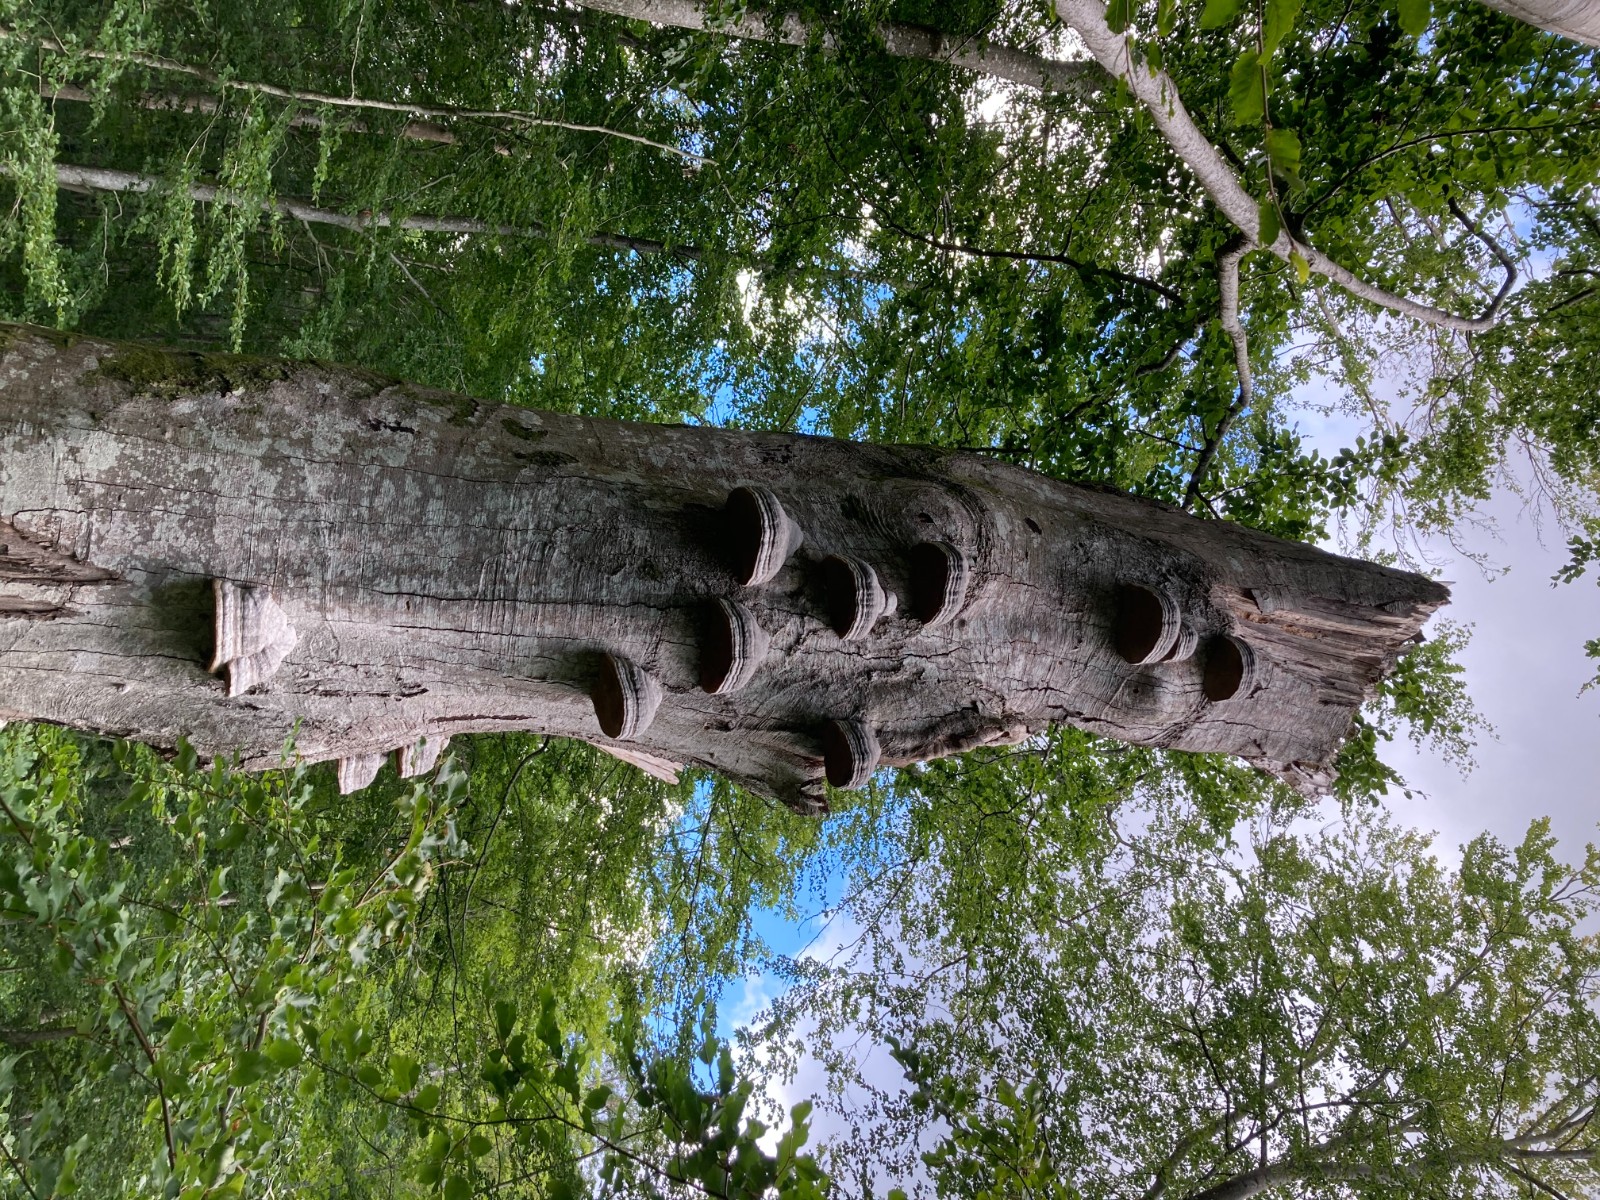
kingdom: Fungi
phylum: Basidiomycota
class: Agaricomycetes
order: Polyporales
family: Polyporaceae
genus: Fomes
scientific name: Fomes fomentarius
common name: tøndersvamp
